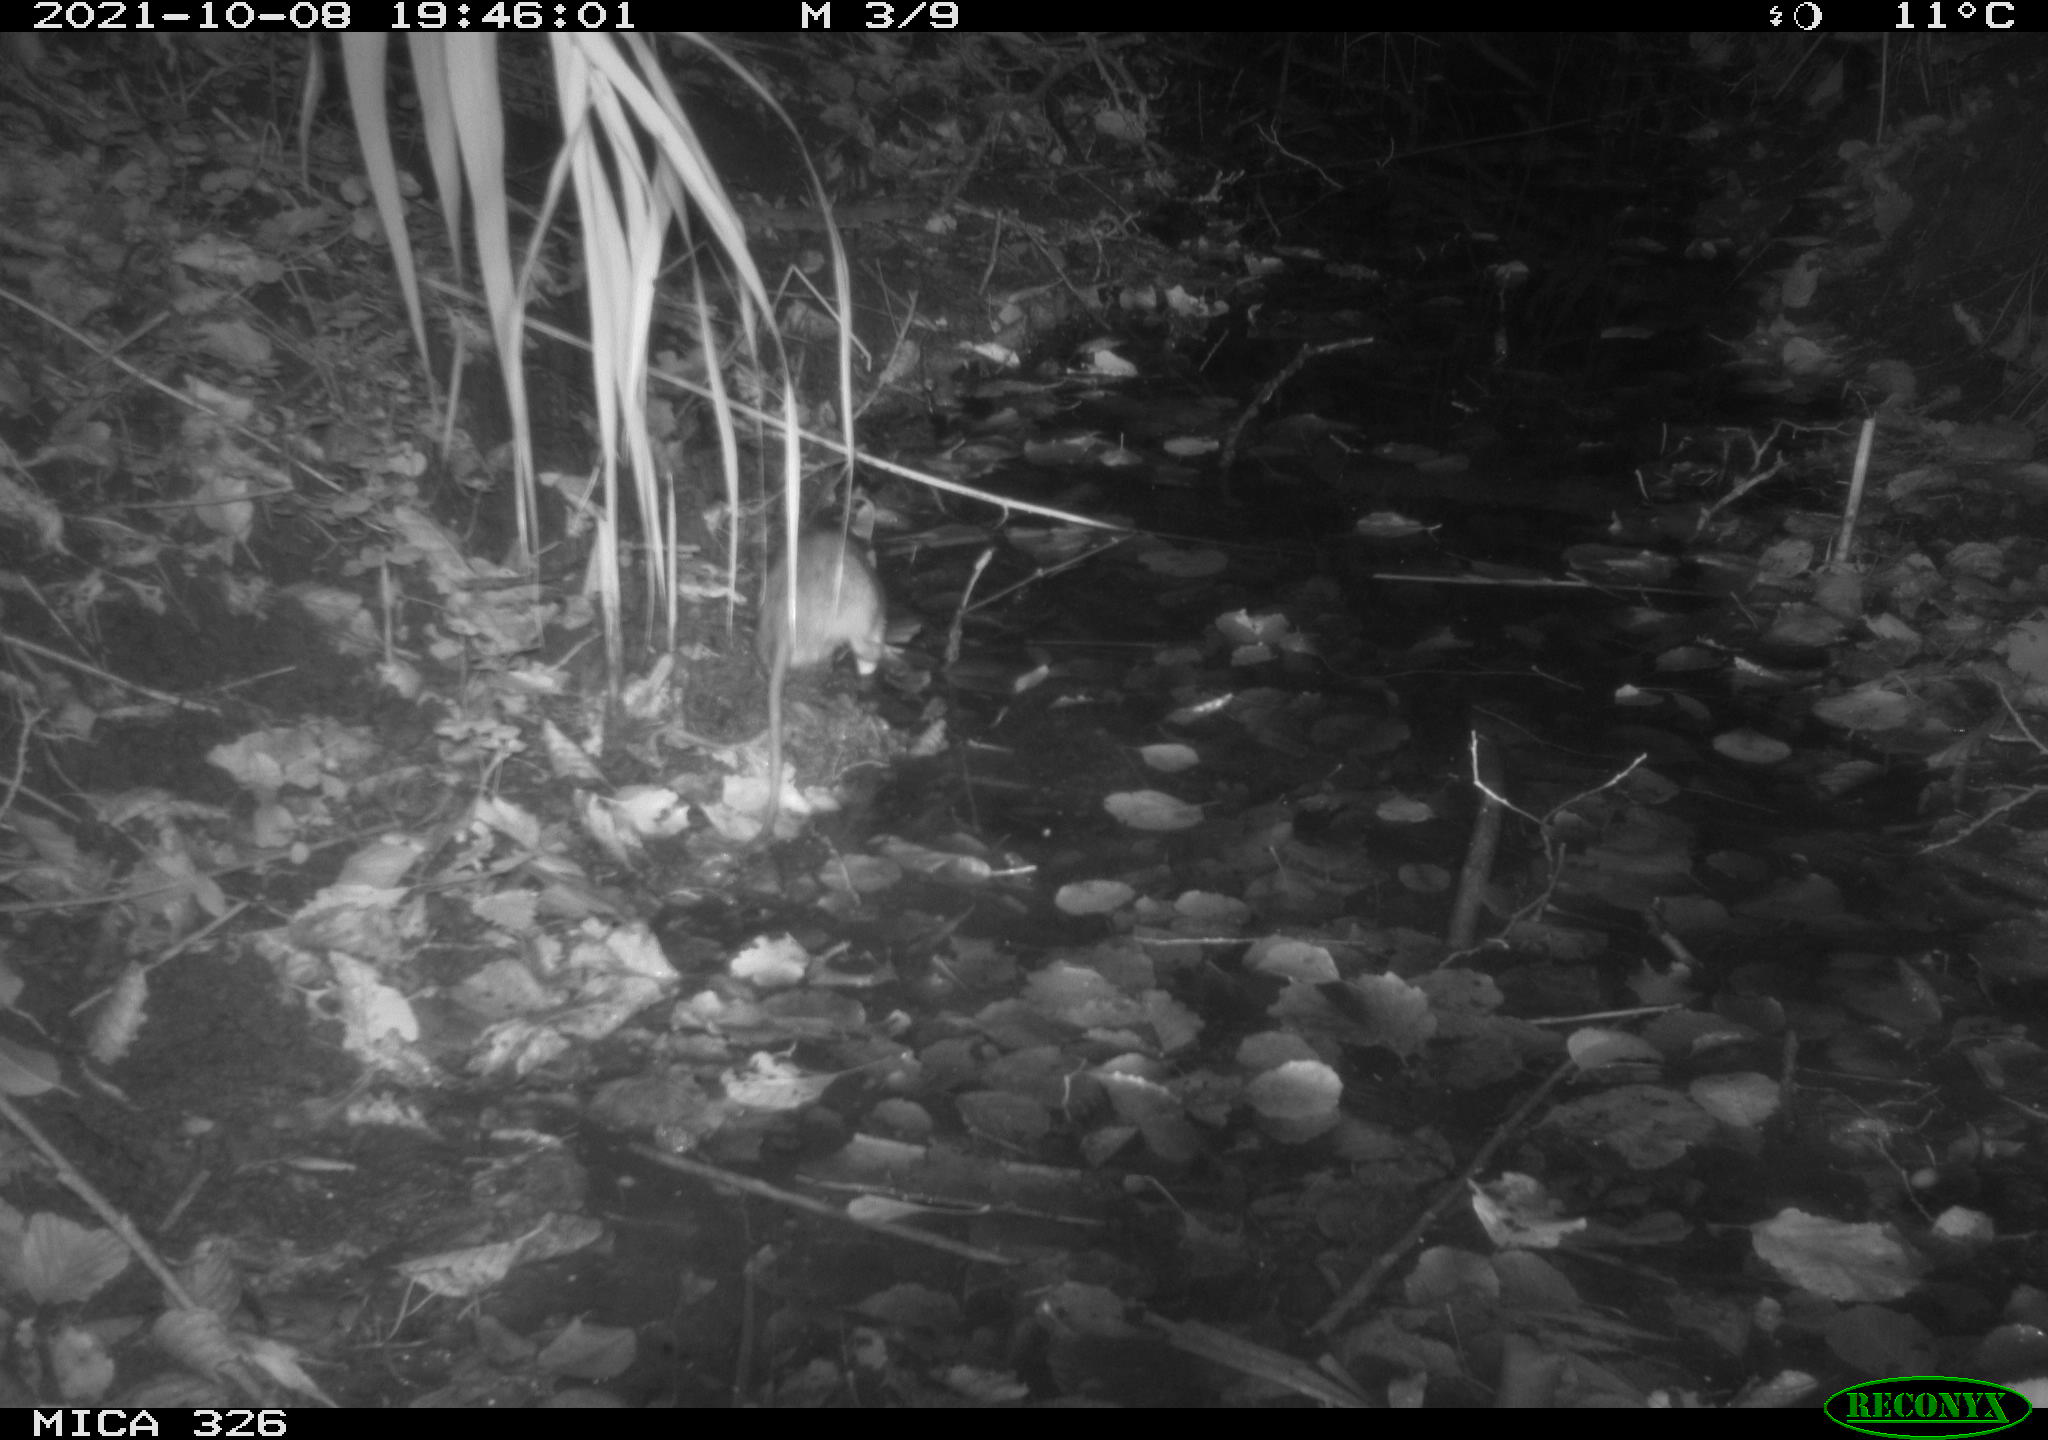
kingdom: Animalia
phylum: Chordata
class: Mammalia
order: Rodentia
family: Muridae
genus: Rattus
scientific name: Rattus norvegicus
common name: Brown rat
